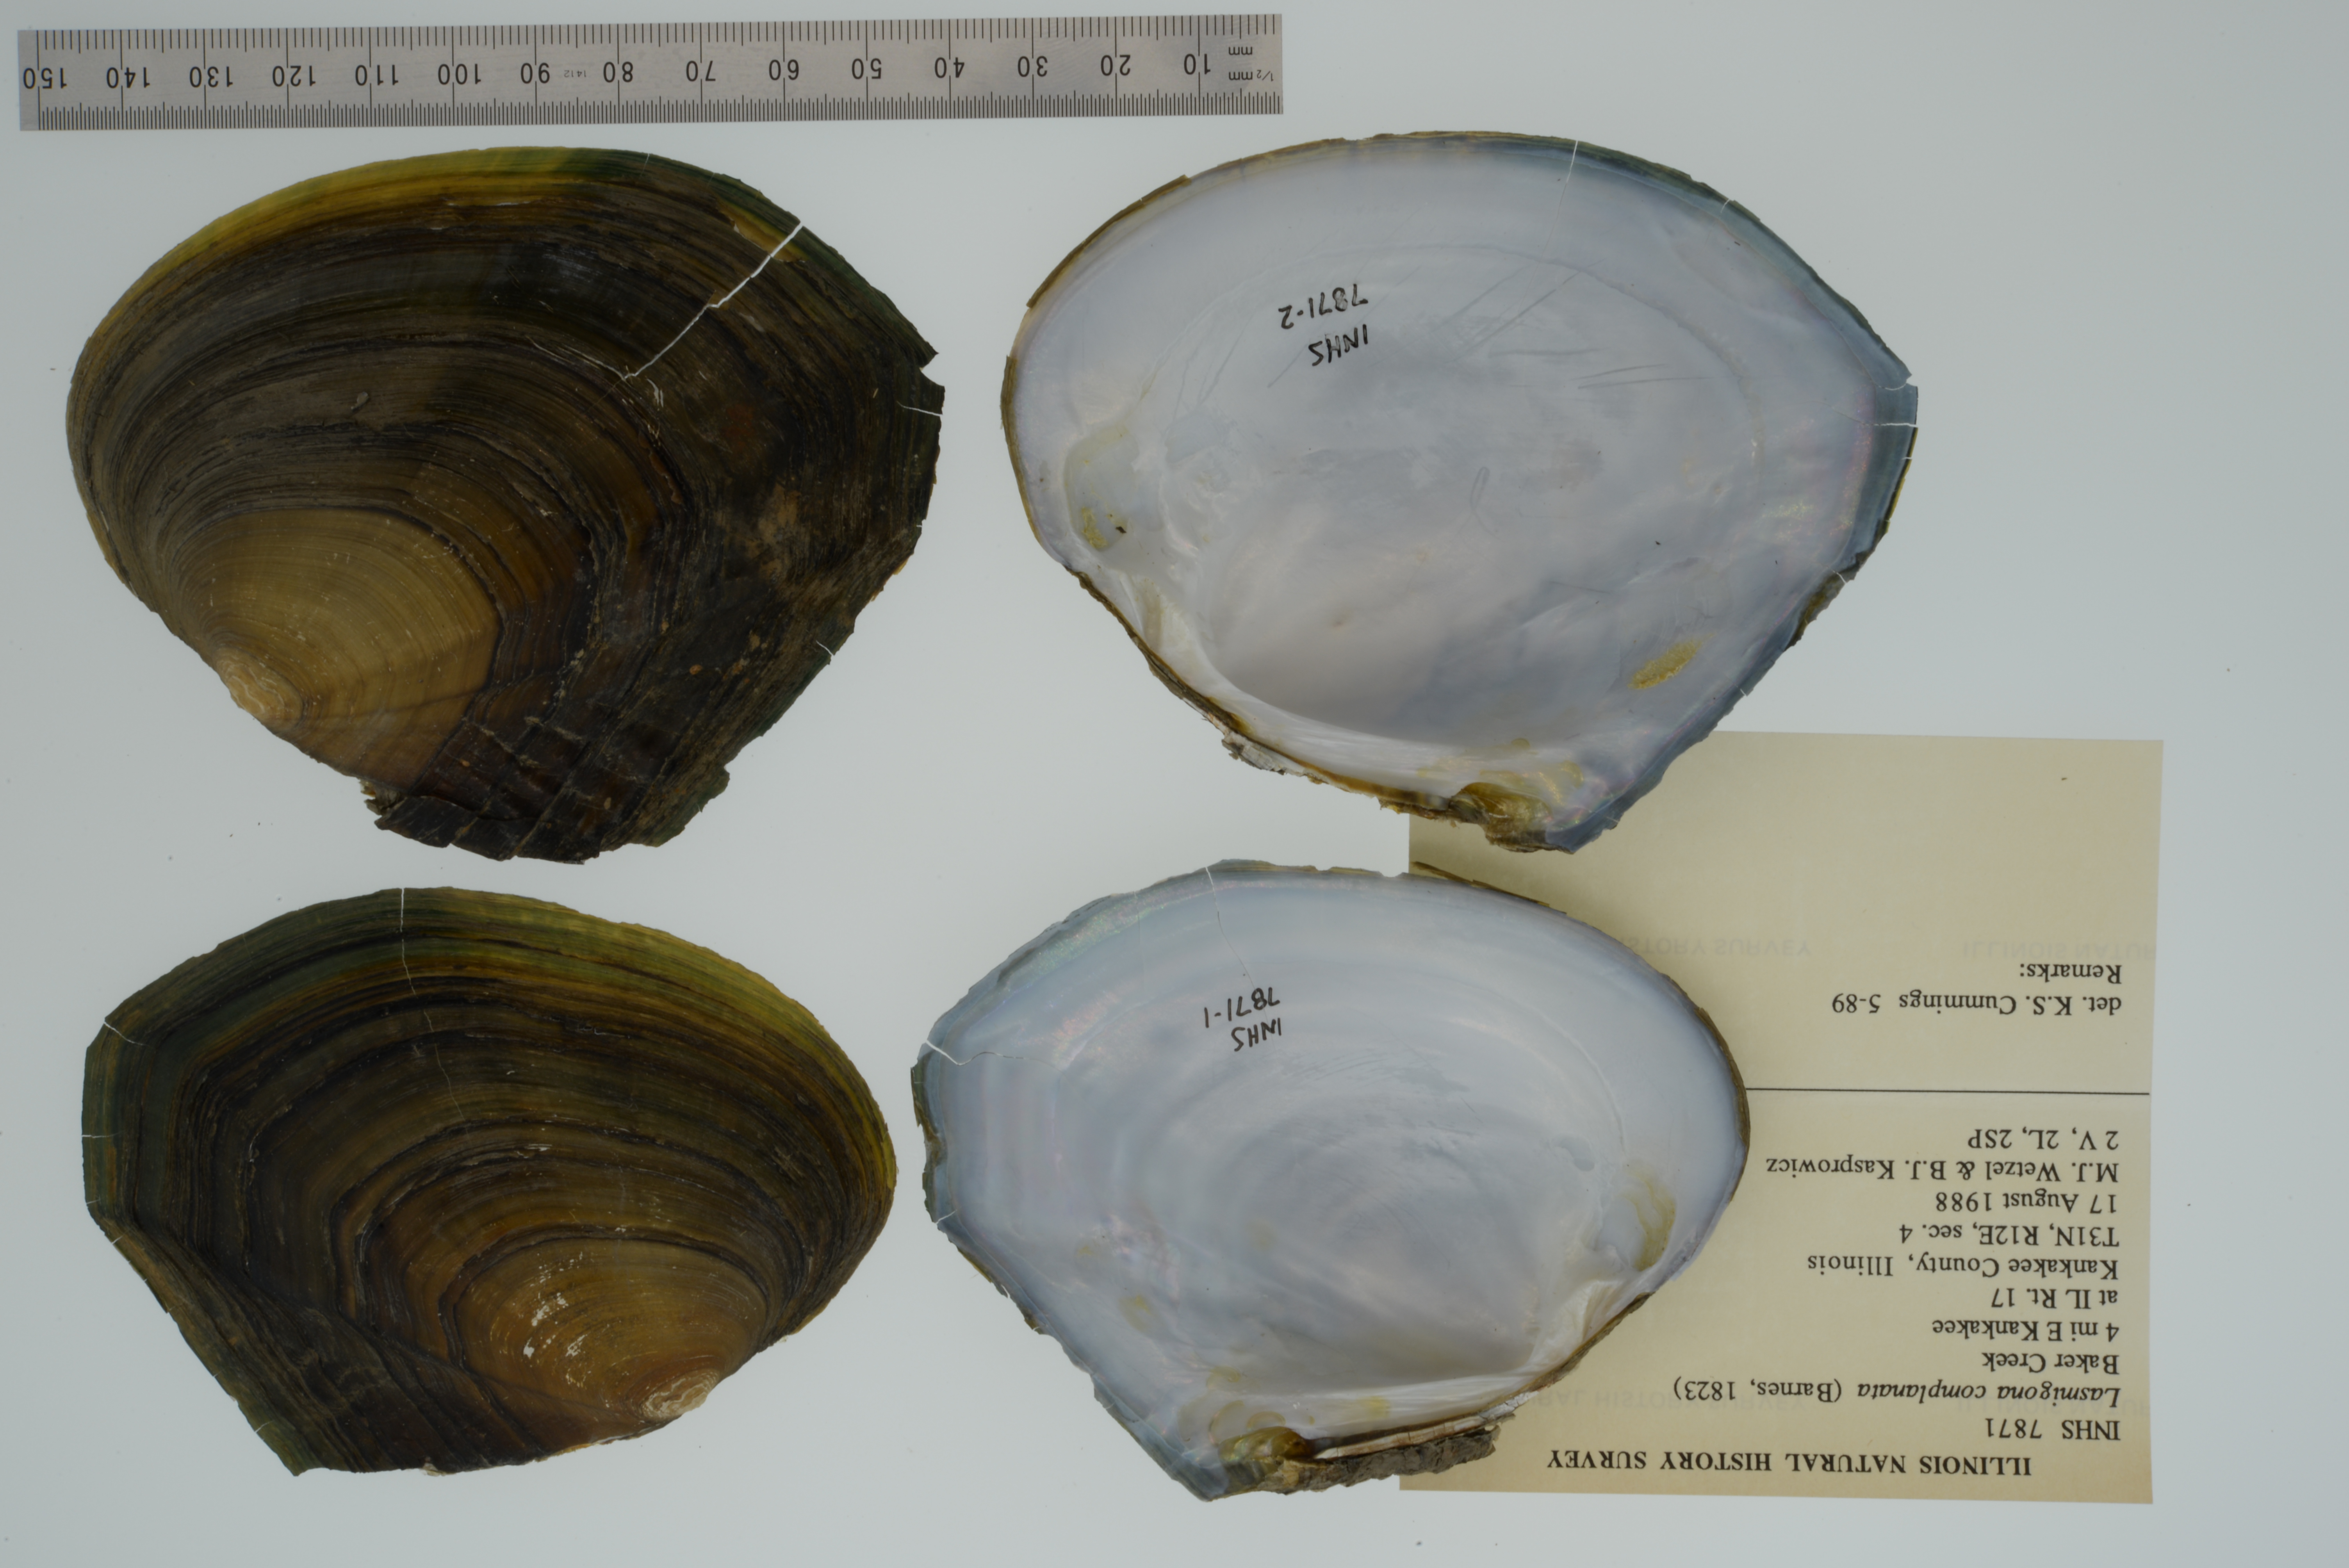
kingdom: Animalia
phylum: Mollusca
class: Bivalvia
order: Unionida
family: Unionidae
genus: Lasmigona
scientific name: Lasmigona complanata
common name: White heelsplitter
